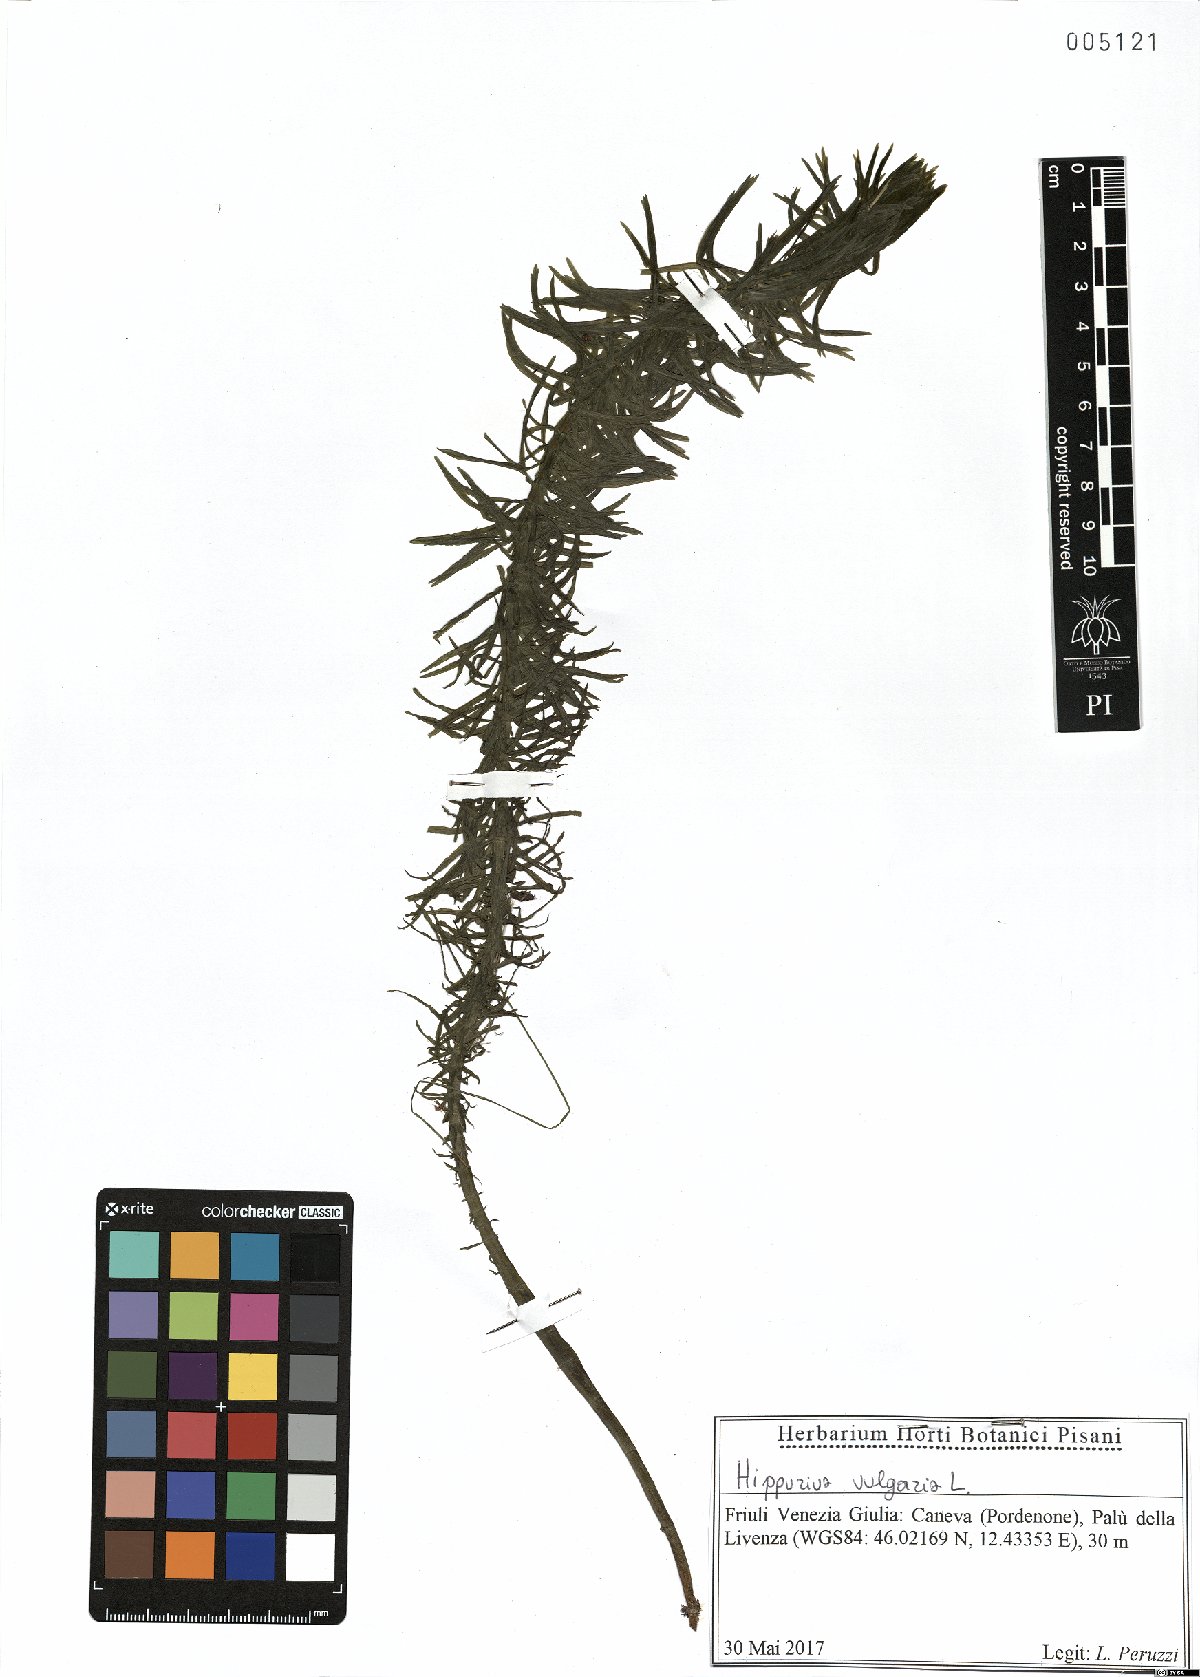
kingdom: Plantae
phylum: Tracheophyta
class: Magnoliopsida
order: Lamiales
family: Plantaginaceae
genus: Hippuris
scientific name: Hippuris vulgaris
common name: Mare's-tail
